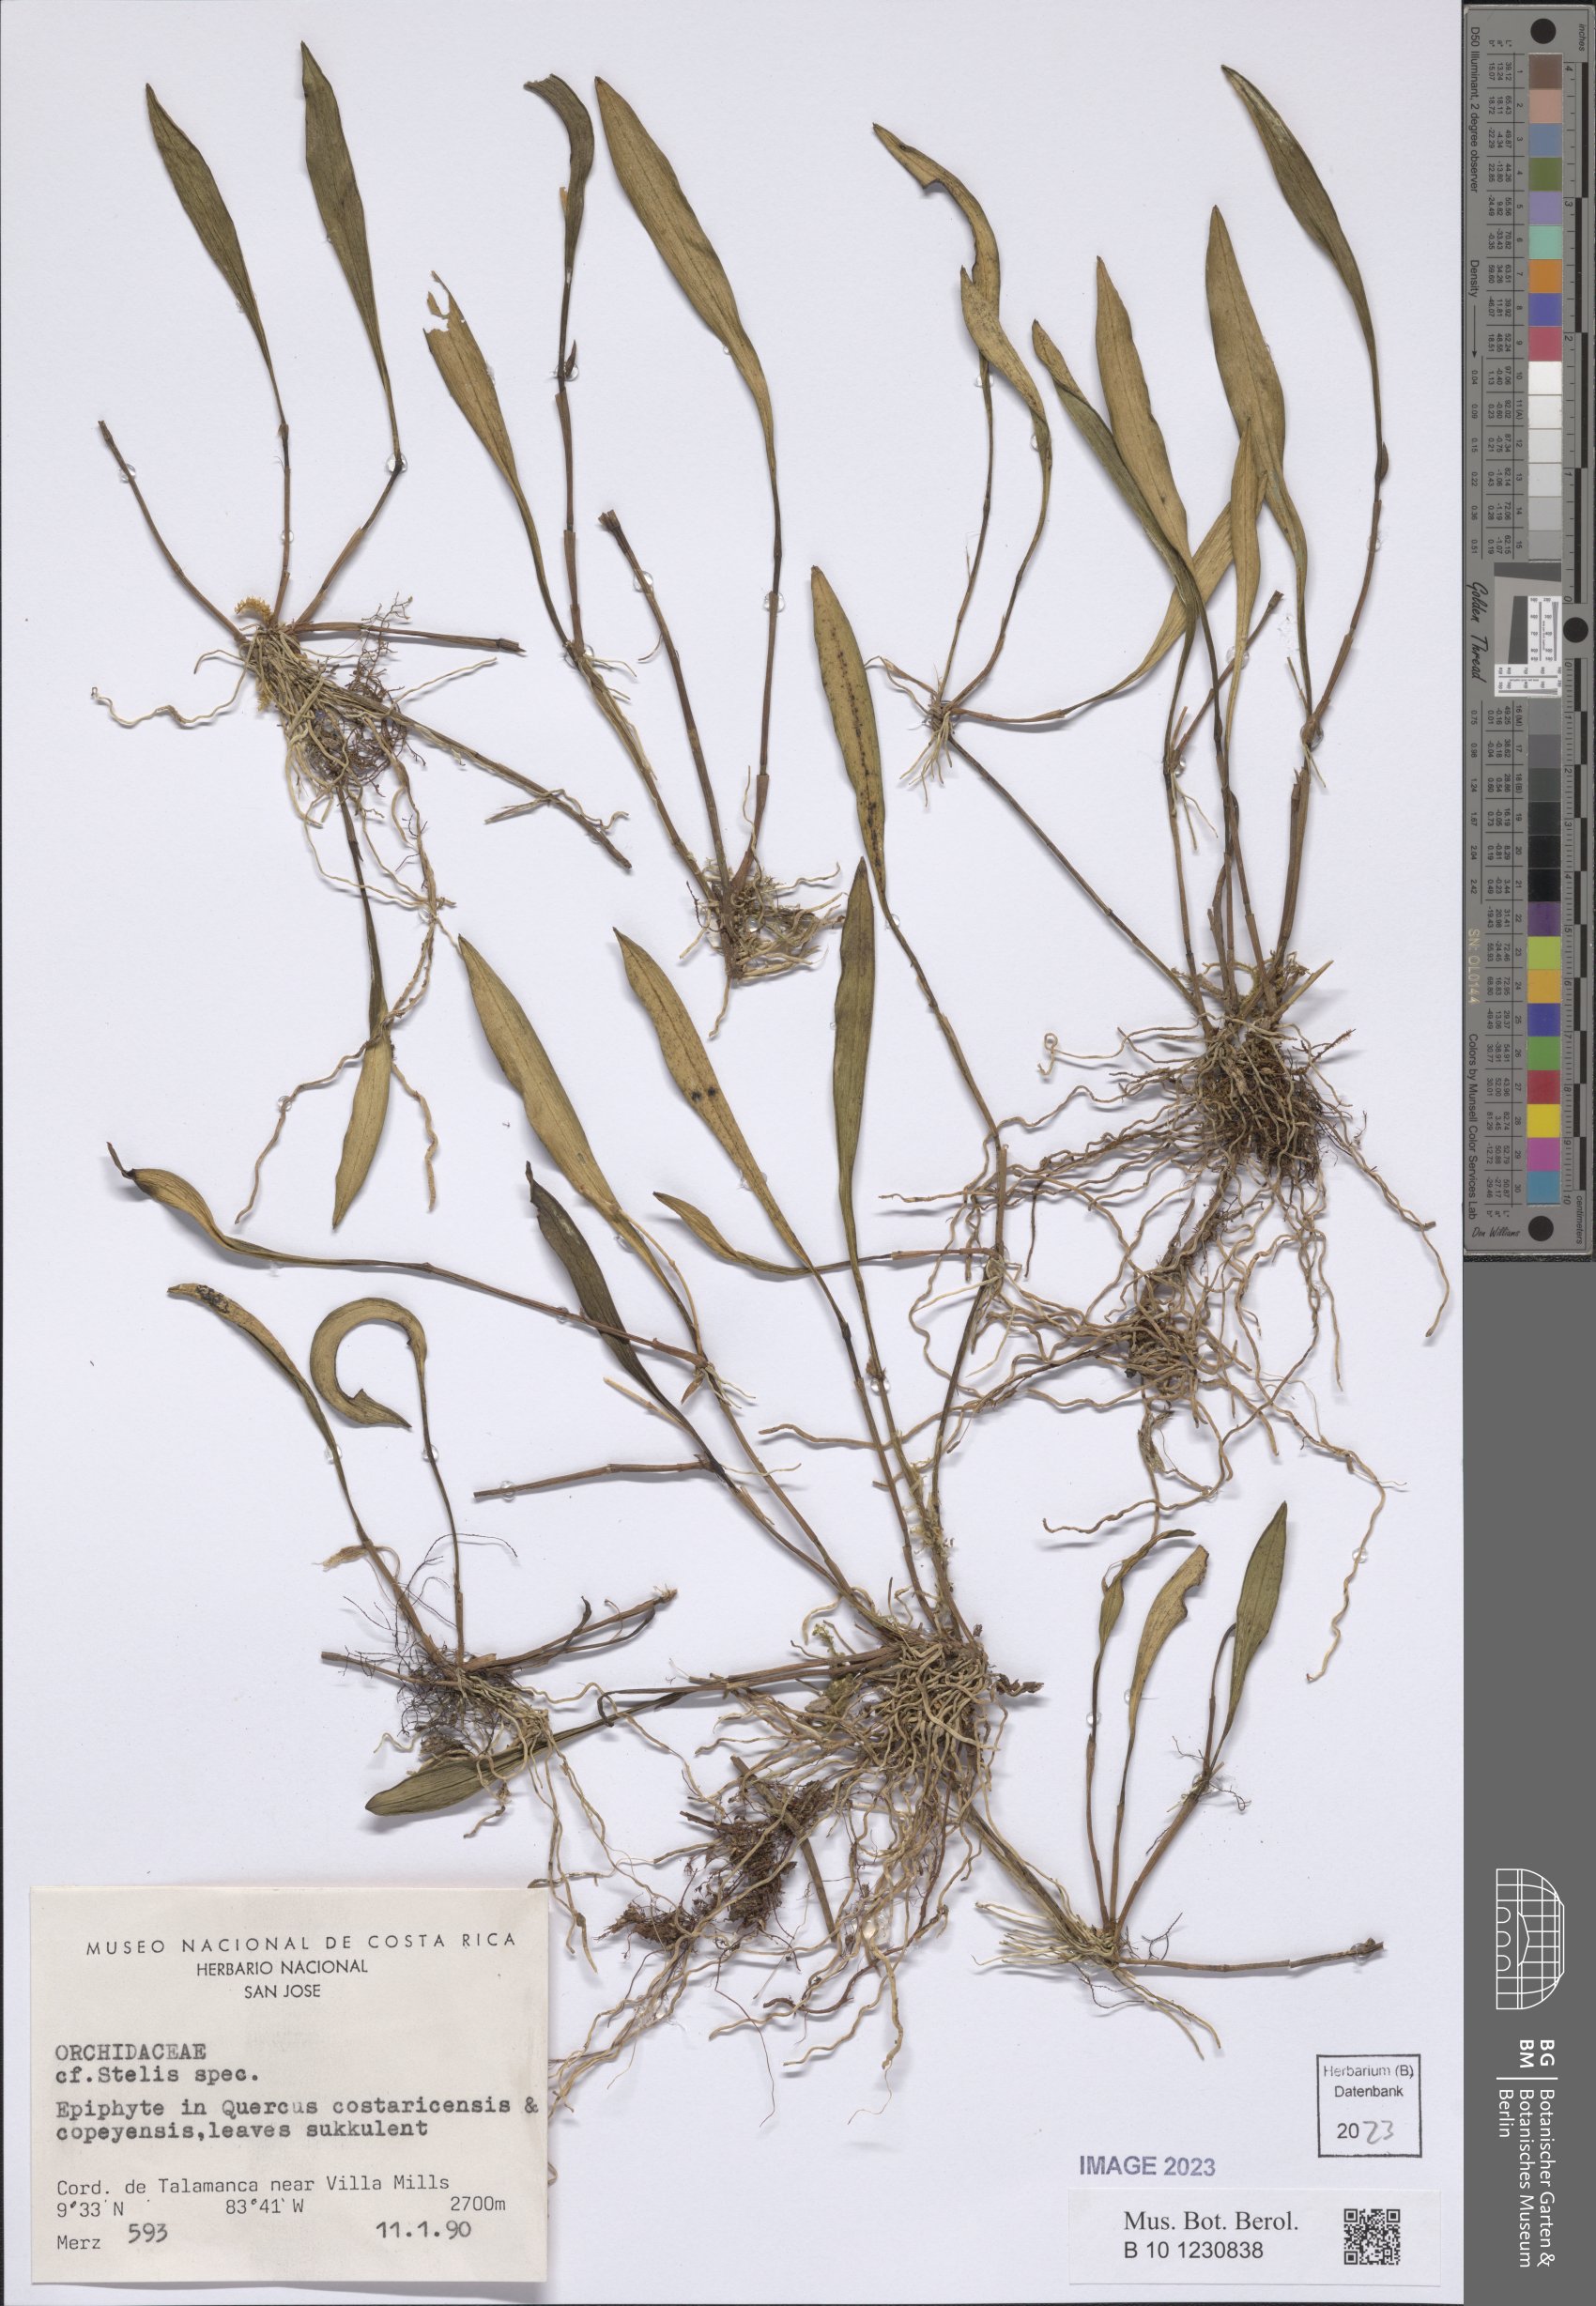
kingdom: Plantae
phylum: Tracheophyta
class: Liliopsida
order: Asparagales
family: Orchidaceae
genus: Stelis
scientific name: Stelis
